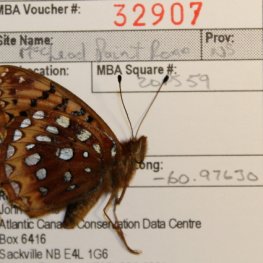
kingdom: Animalia
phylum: Arthropoda
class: Insecta
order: Lepidoptera
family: Nymphalidae
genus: Speyeria
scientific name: Speyeria cybele
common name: Great Spangled Fritillary
